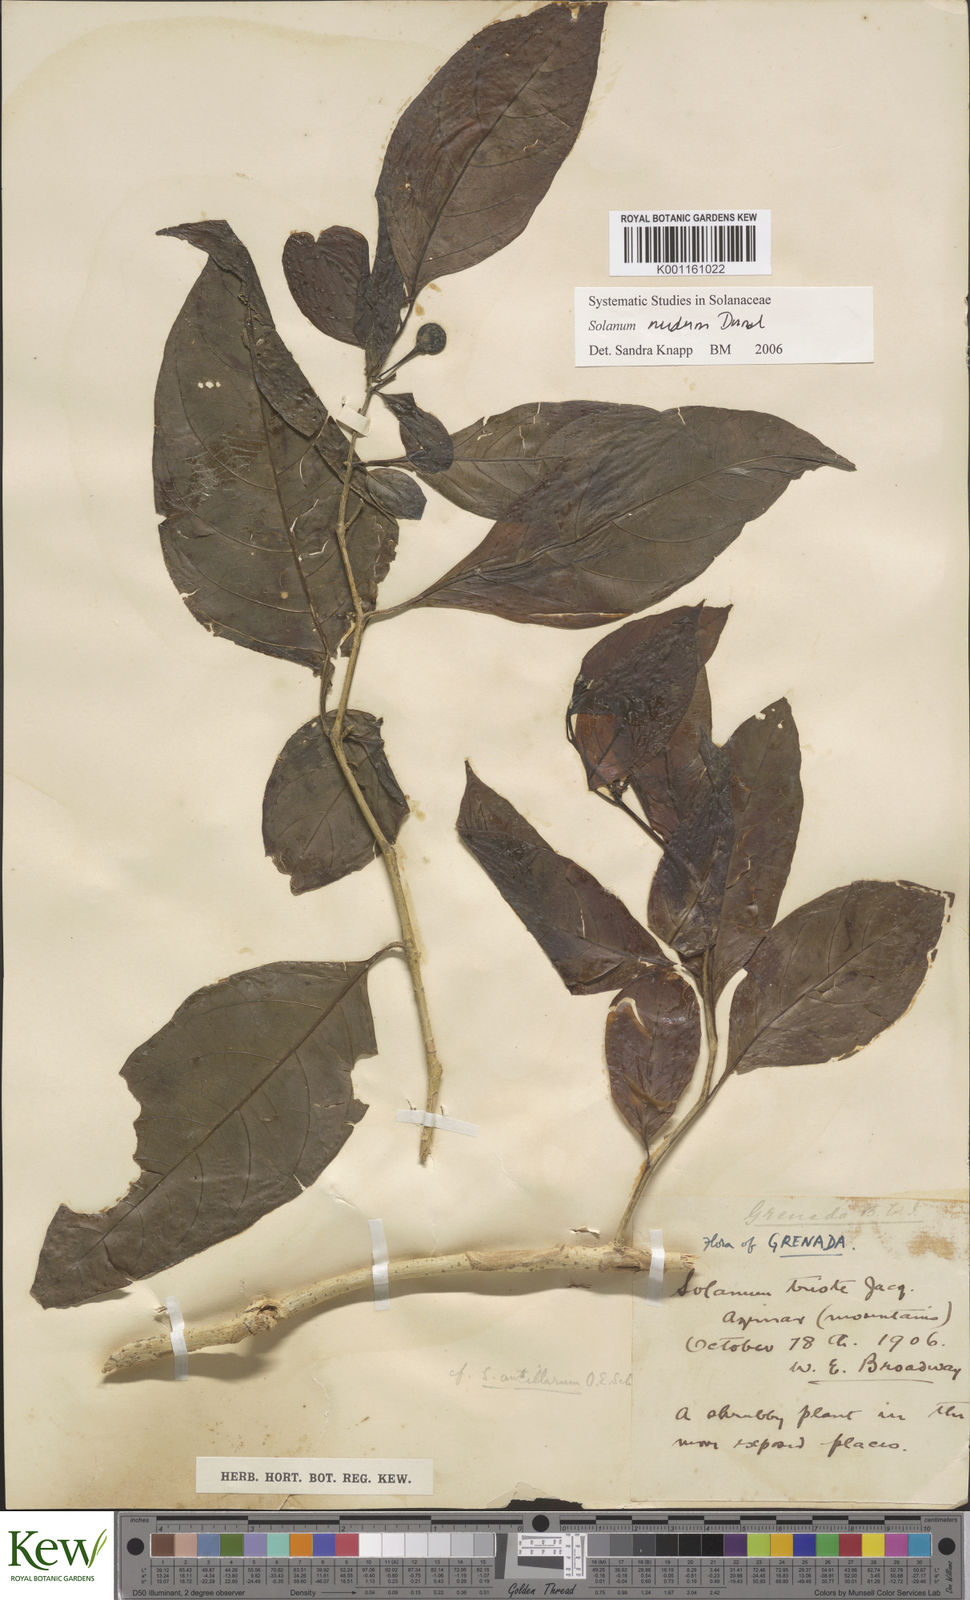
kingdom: Plantae
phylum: Tracheophyta
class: Magnoliopsida
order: Solanales
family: Solanaceae
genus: Solanum
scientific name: Solanum nudum
